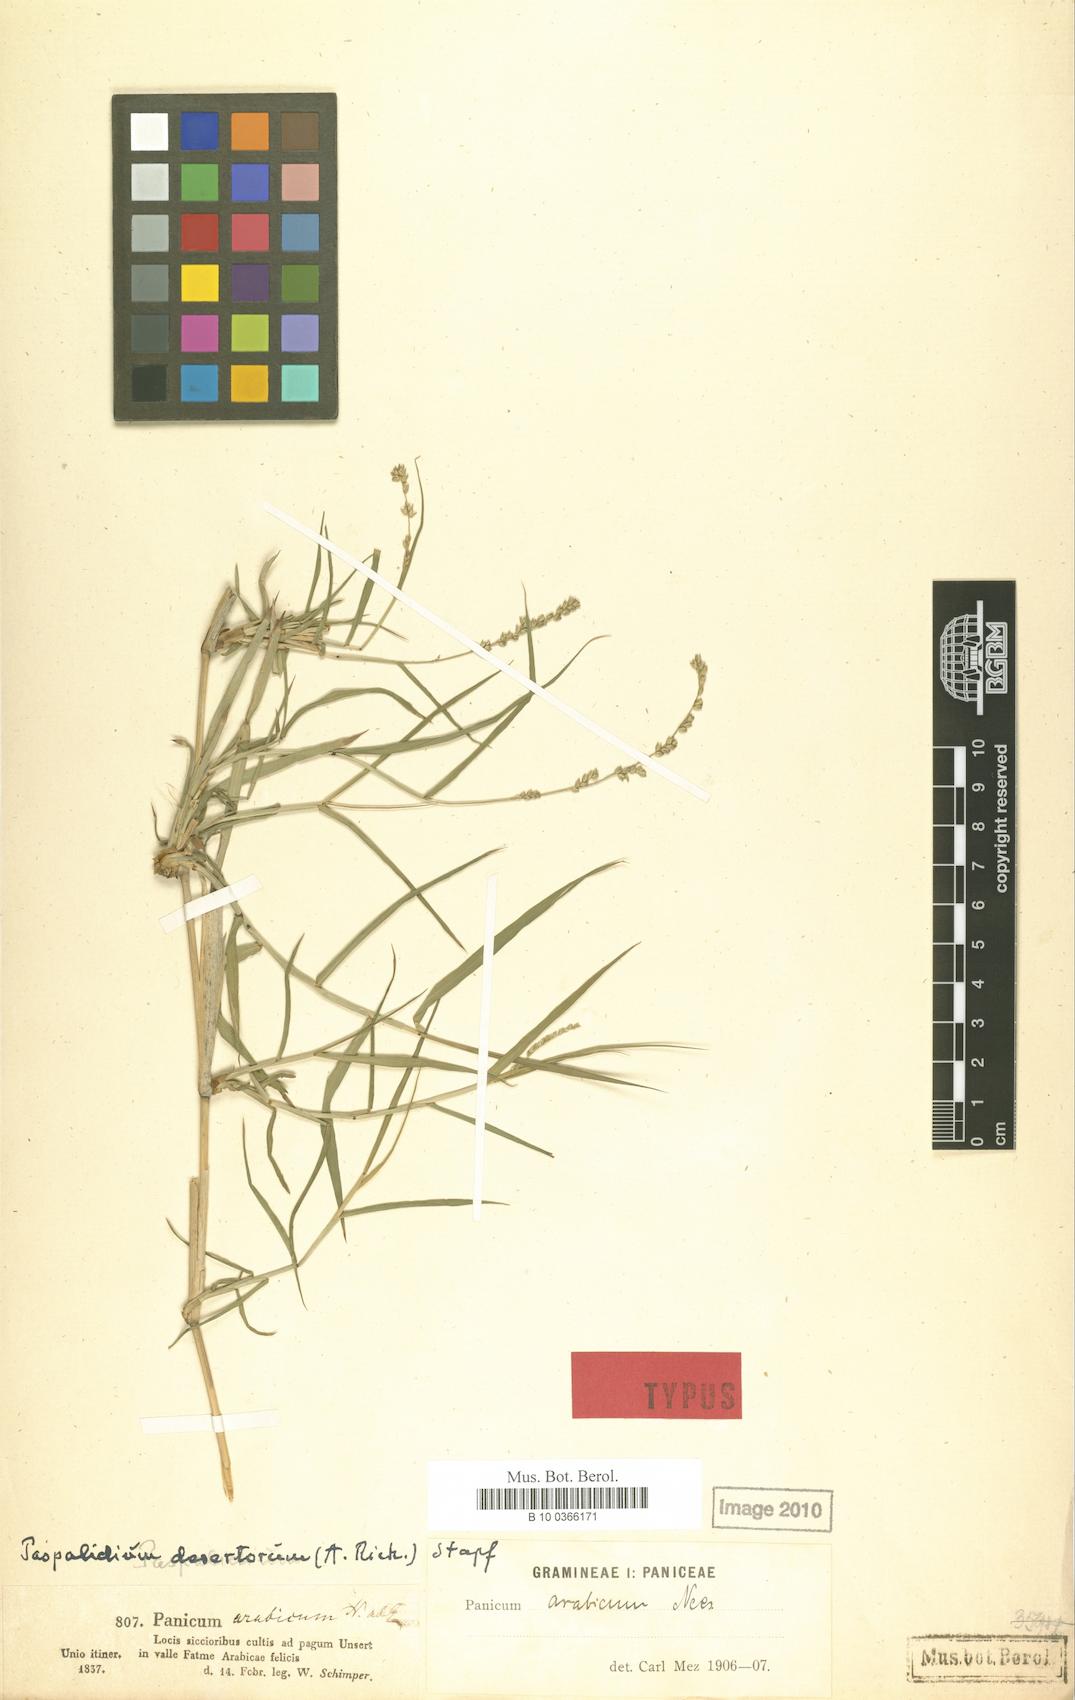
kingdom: Plantae
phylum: Tracheophyta
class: Liliopsida
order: Poales
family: Poaceae
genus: Setaria
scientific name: Setaria desertorum
